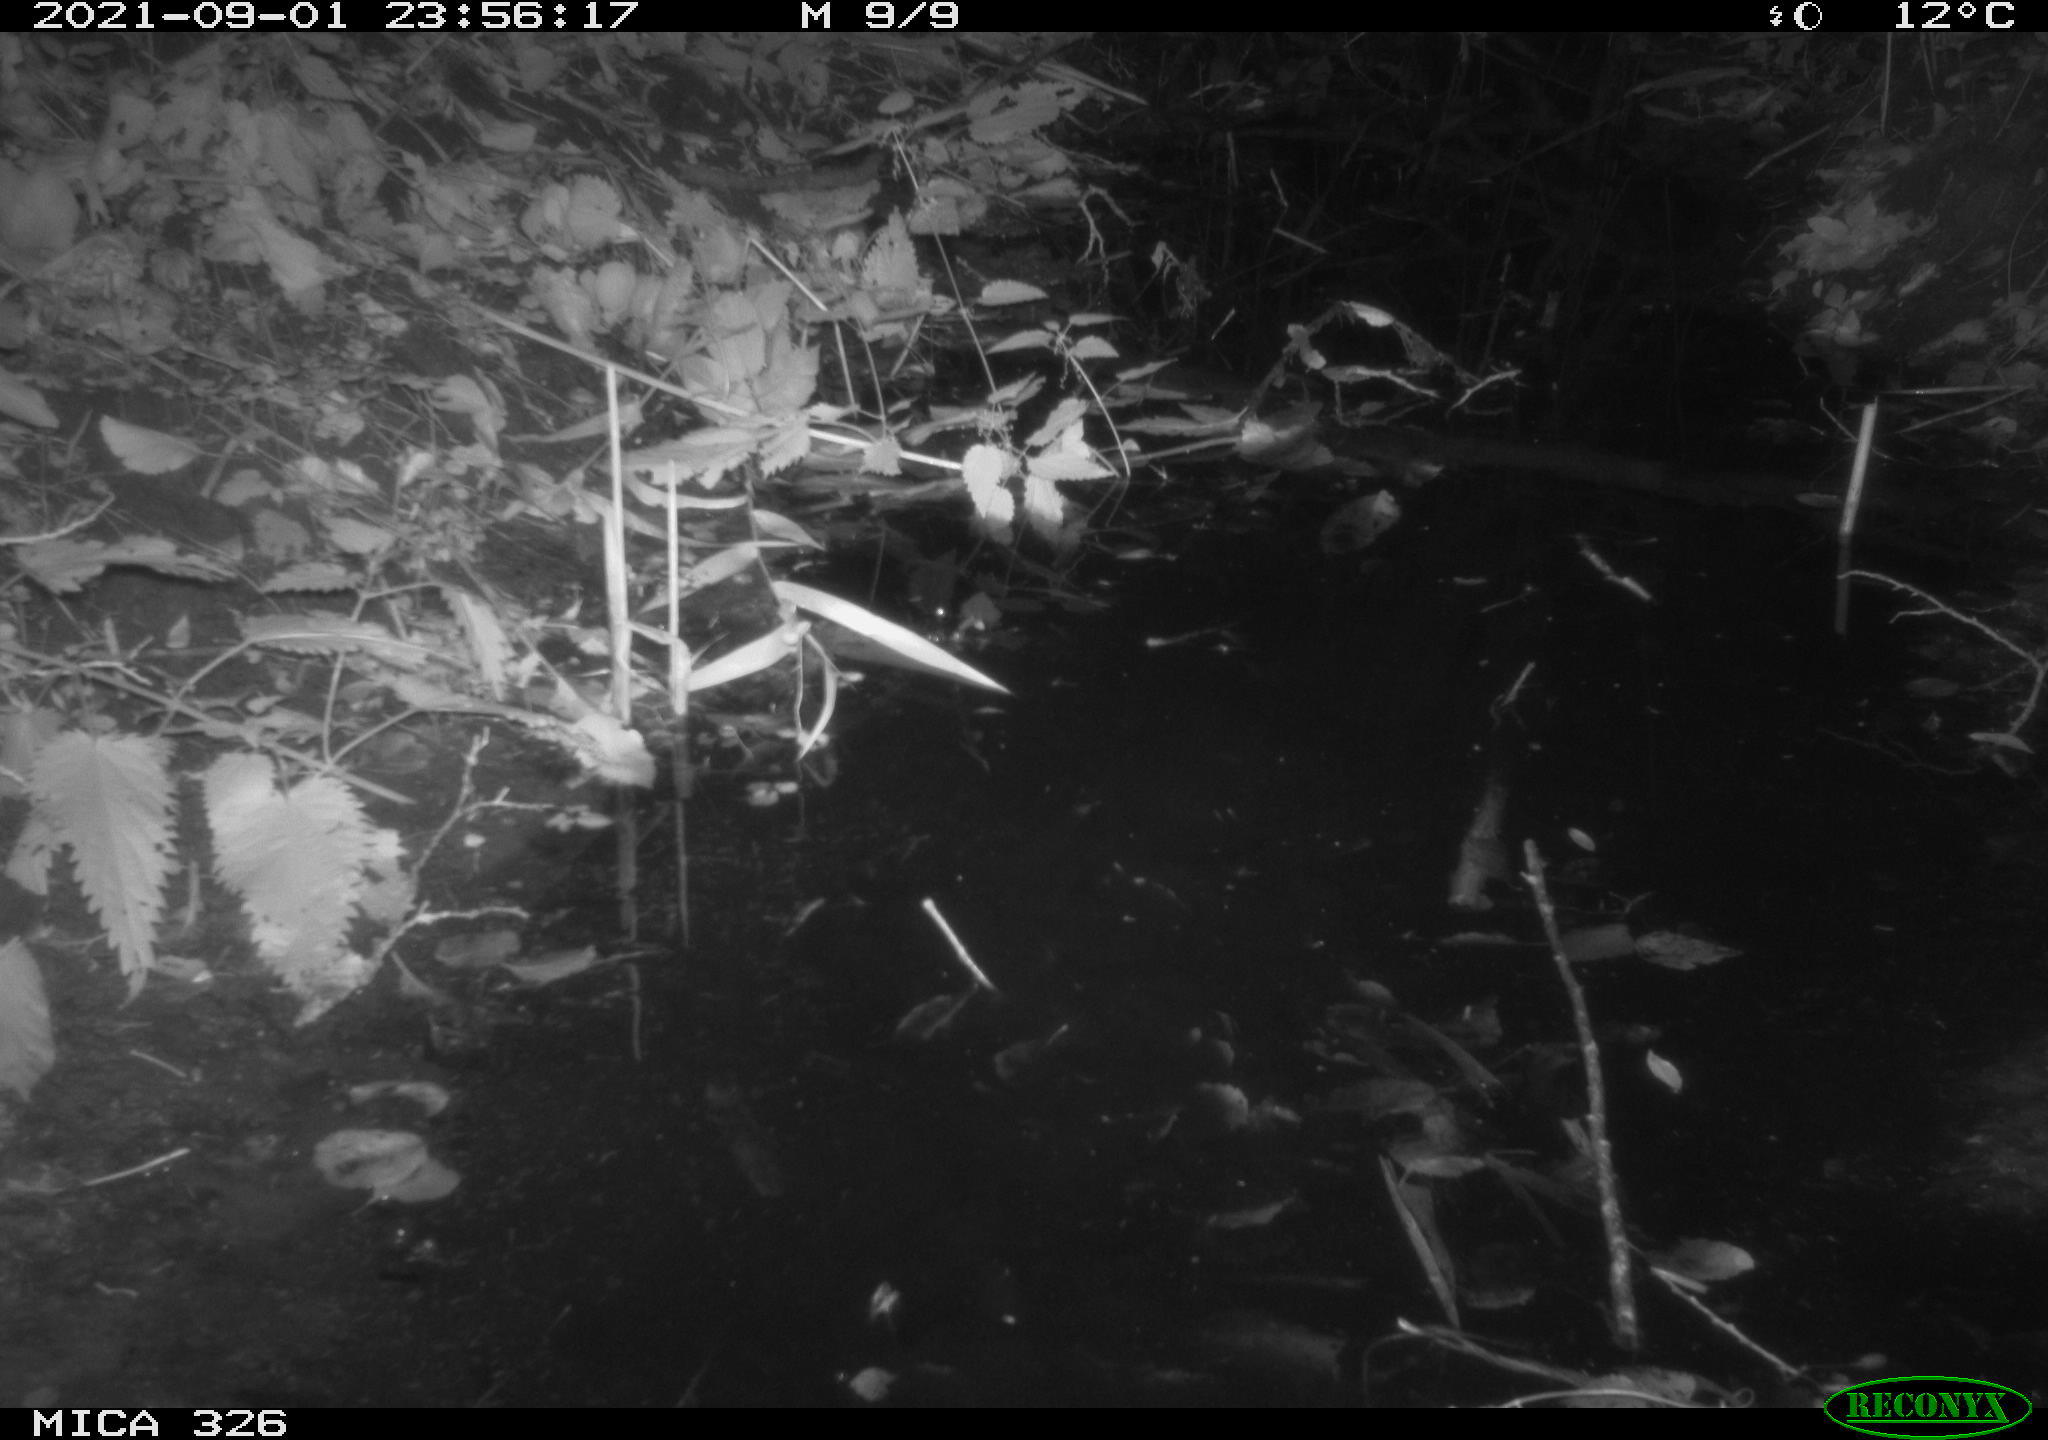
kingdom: Animalia
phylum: Chordata
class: Mammalia
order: Rodentia
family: Cricetidae
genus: Ondatra
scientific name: Ondatra zibethicus
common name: Muskrat
